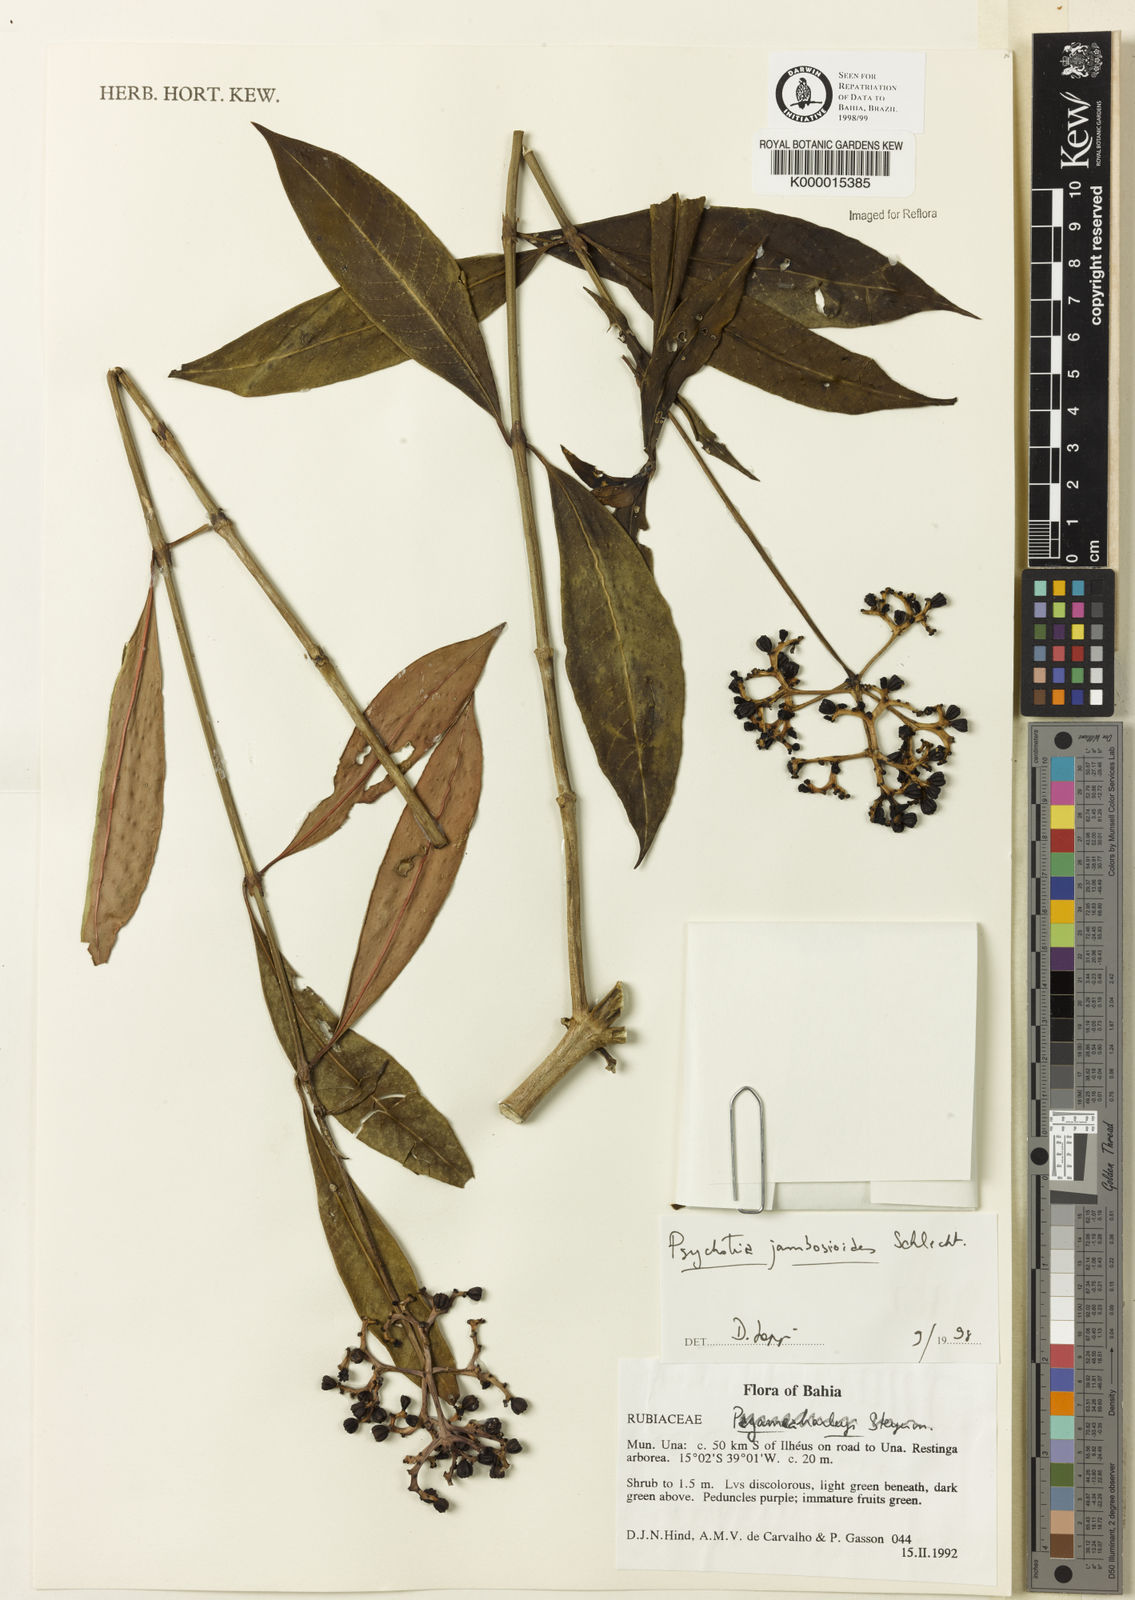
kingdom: Plantae
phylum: Tracheophyta
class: Magnoliopsida
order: Gentianales
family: Rubiaceae
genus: Palicourea
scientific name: Palicourea jambosioides
